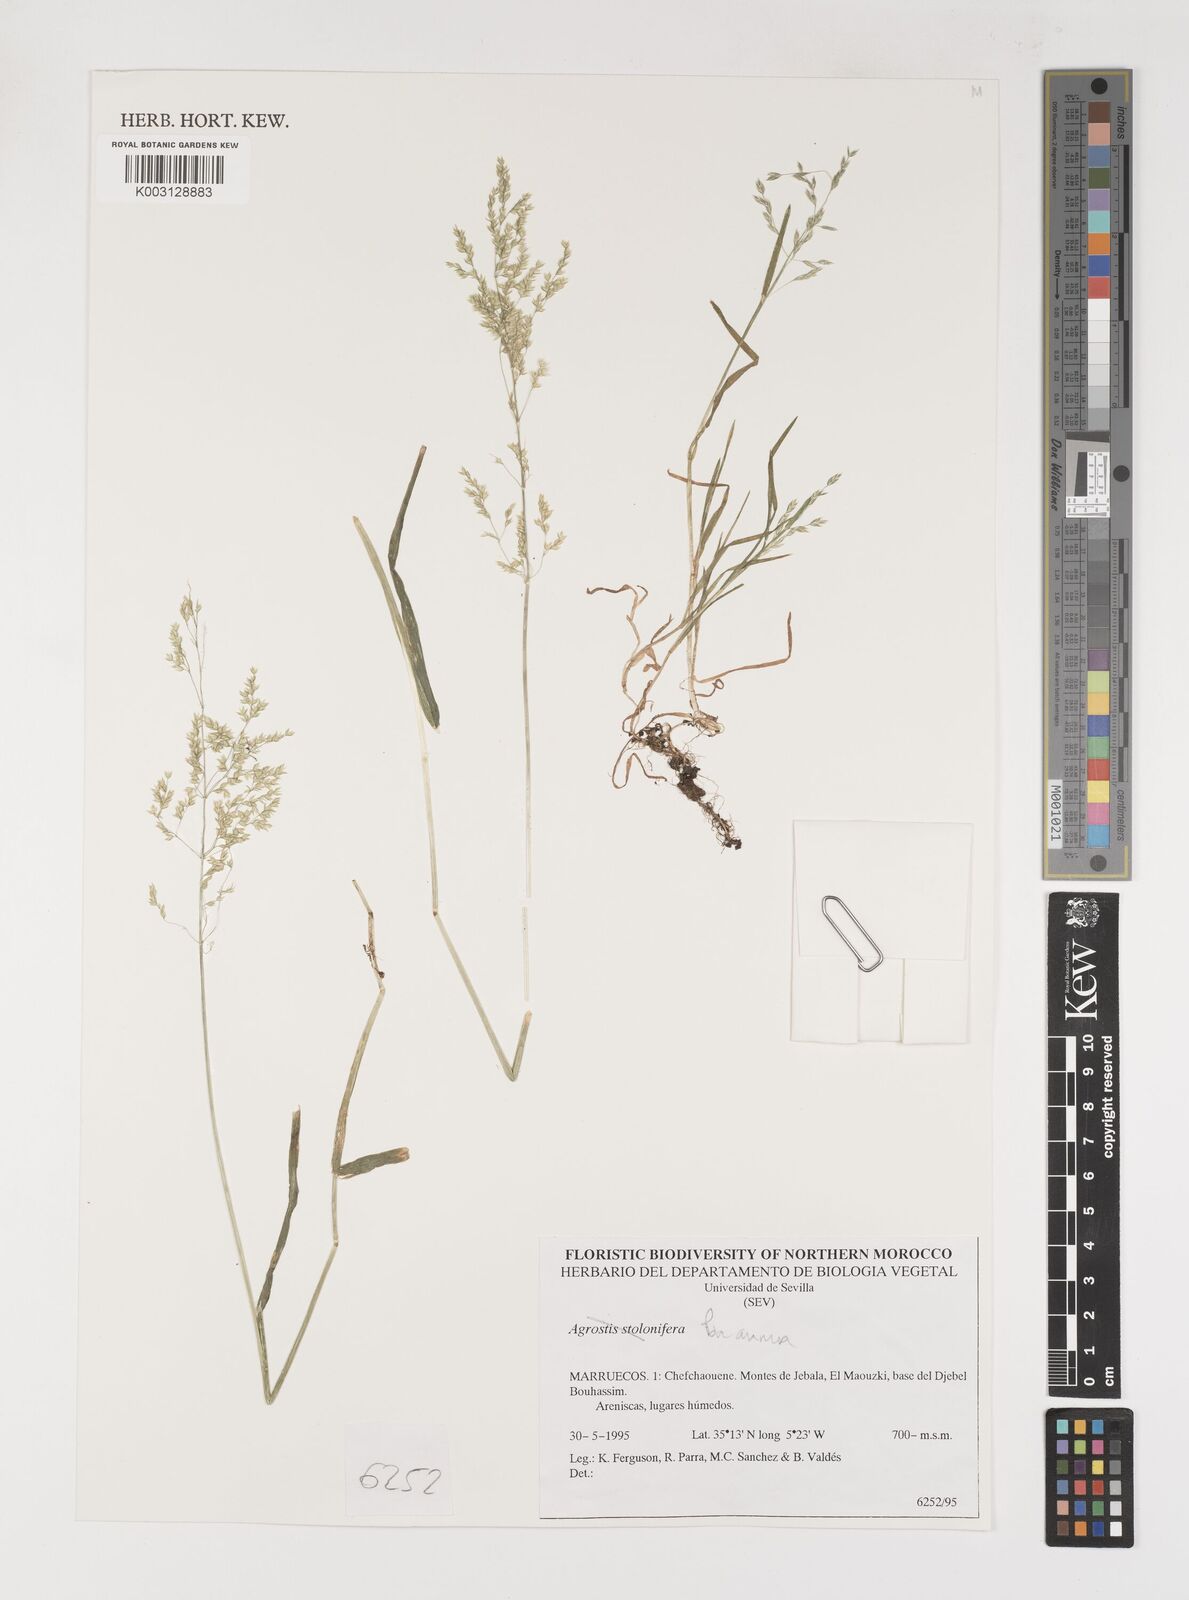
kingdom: Plantae
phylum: Tracheophyta
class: Liliopsida
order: Poales
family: Poaceae
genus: Poa
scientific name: Poa annua
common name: Annual bluegrass
